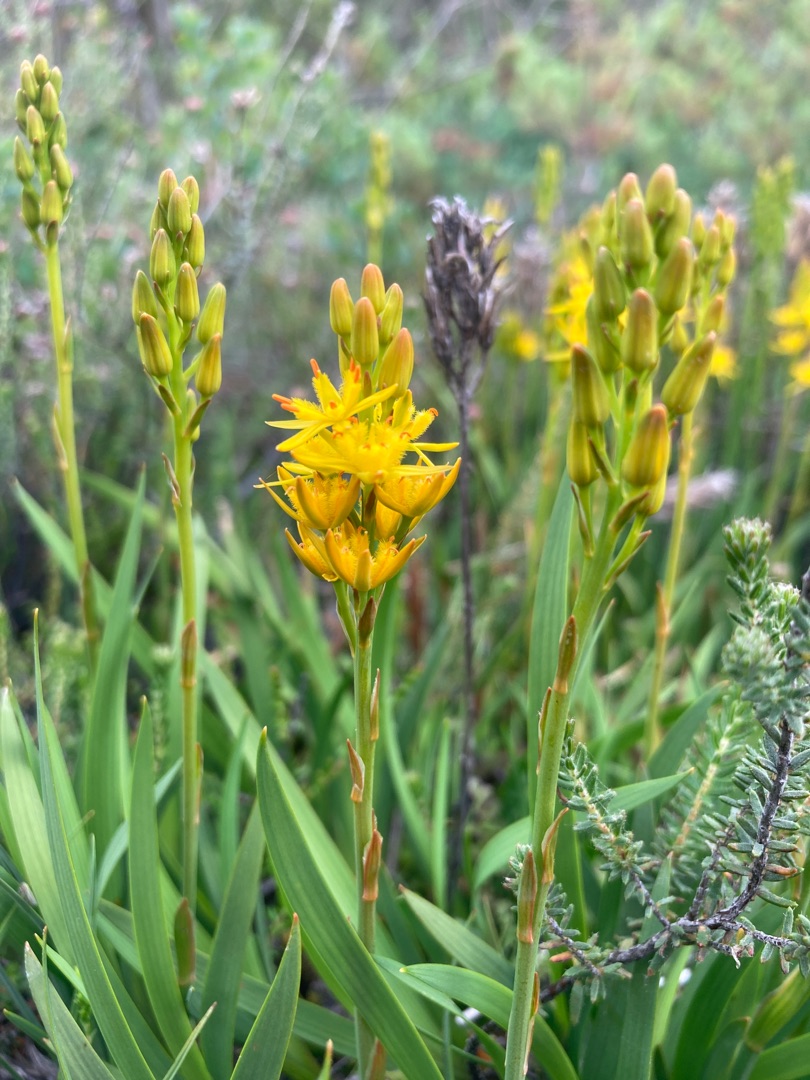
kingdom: Plantae
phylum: Tracheophyta
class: Liliopsida
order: Dioscoreales
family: Nartheciaceae
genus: Narthecium
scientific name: Narthecium ossifragum
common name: Benbræk
